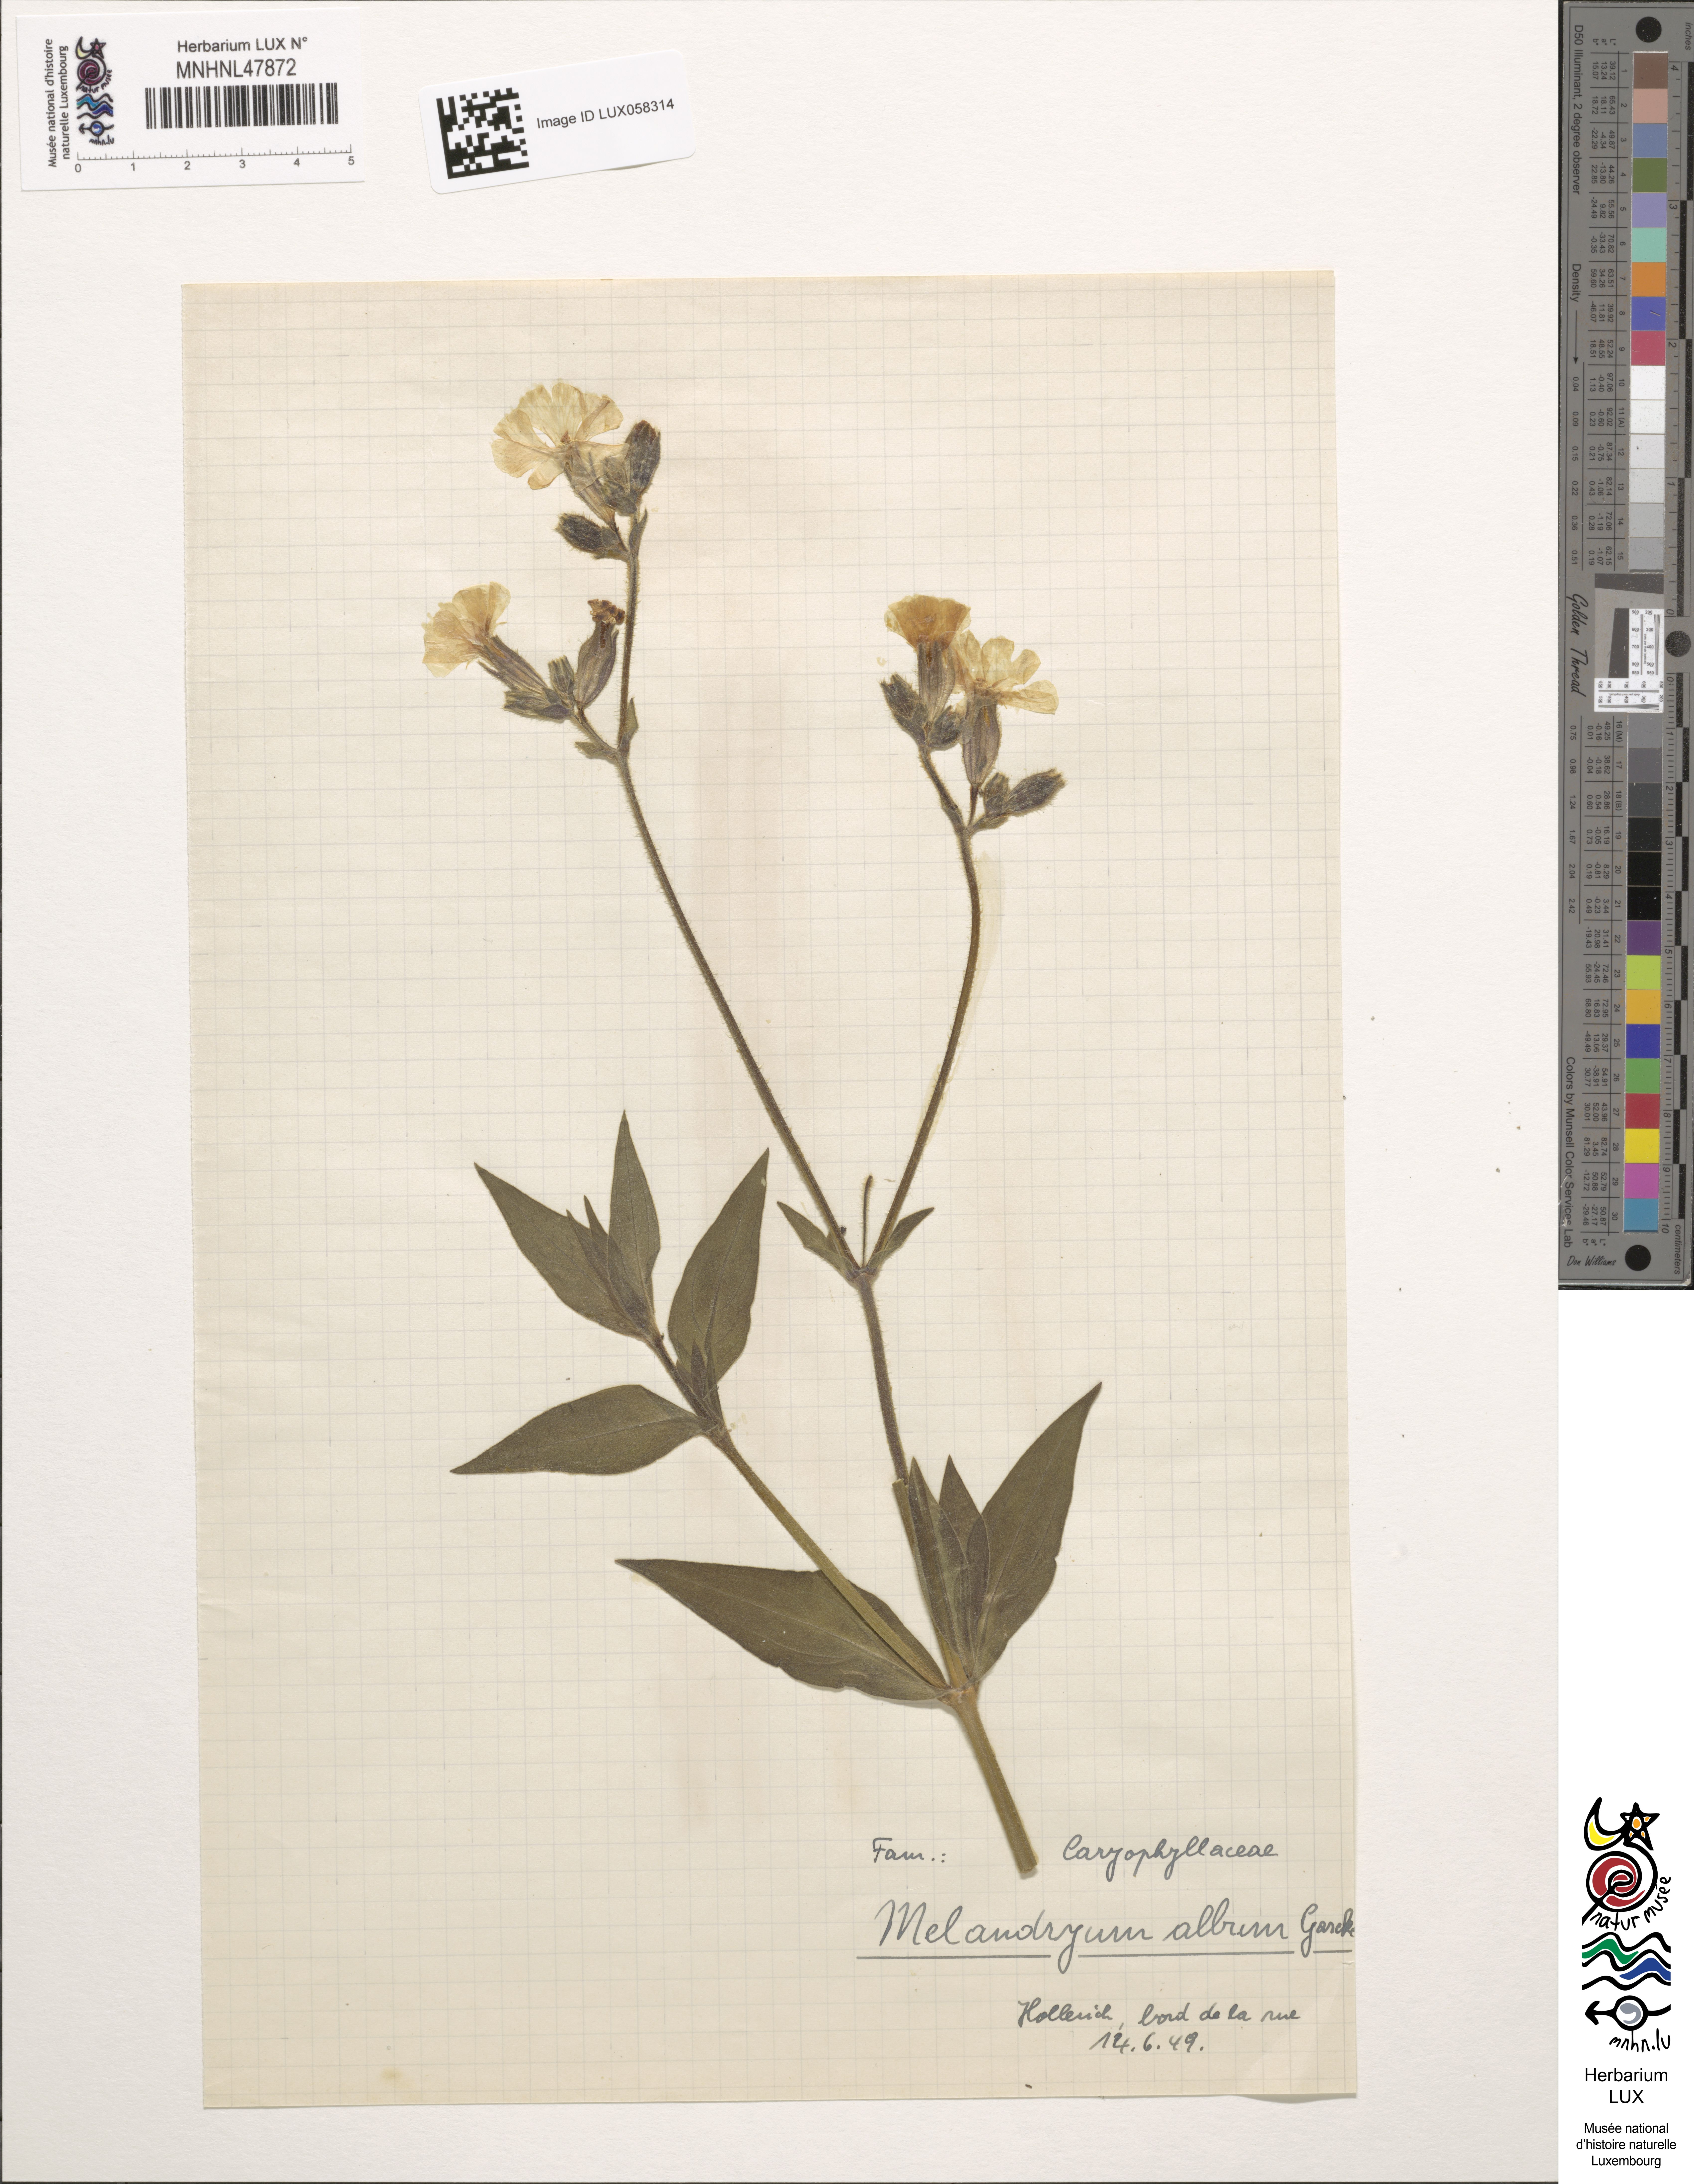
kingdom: Plantae
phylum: Tracheophyta
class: Magnoliopsida
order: Caryophyllales
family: Caryophyllaceae
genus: Silene
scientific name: Silene latifolia
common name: White campion
